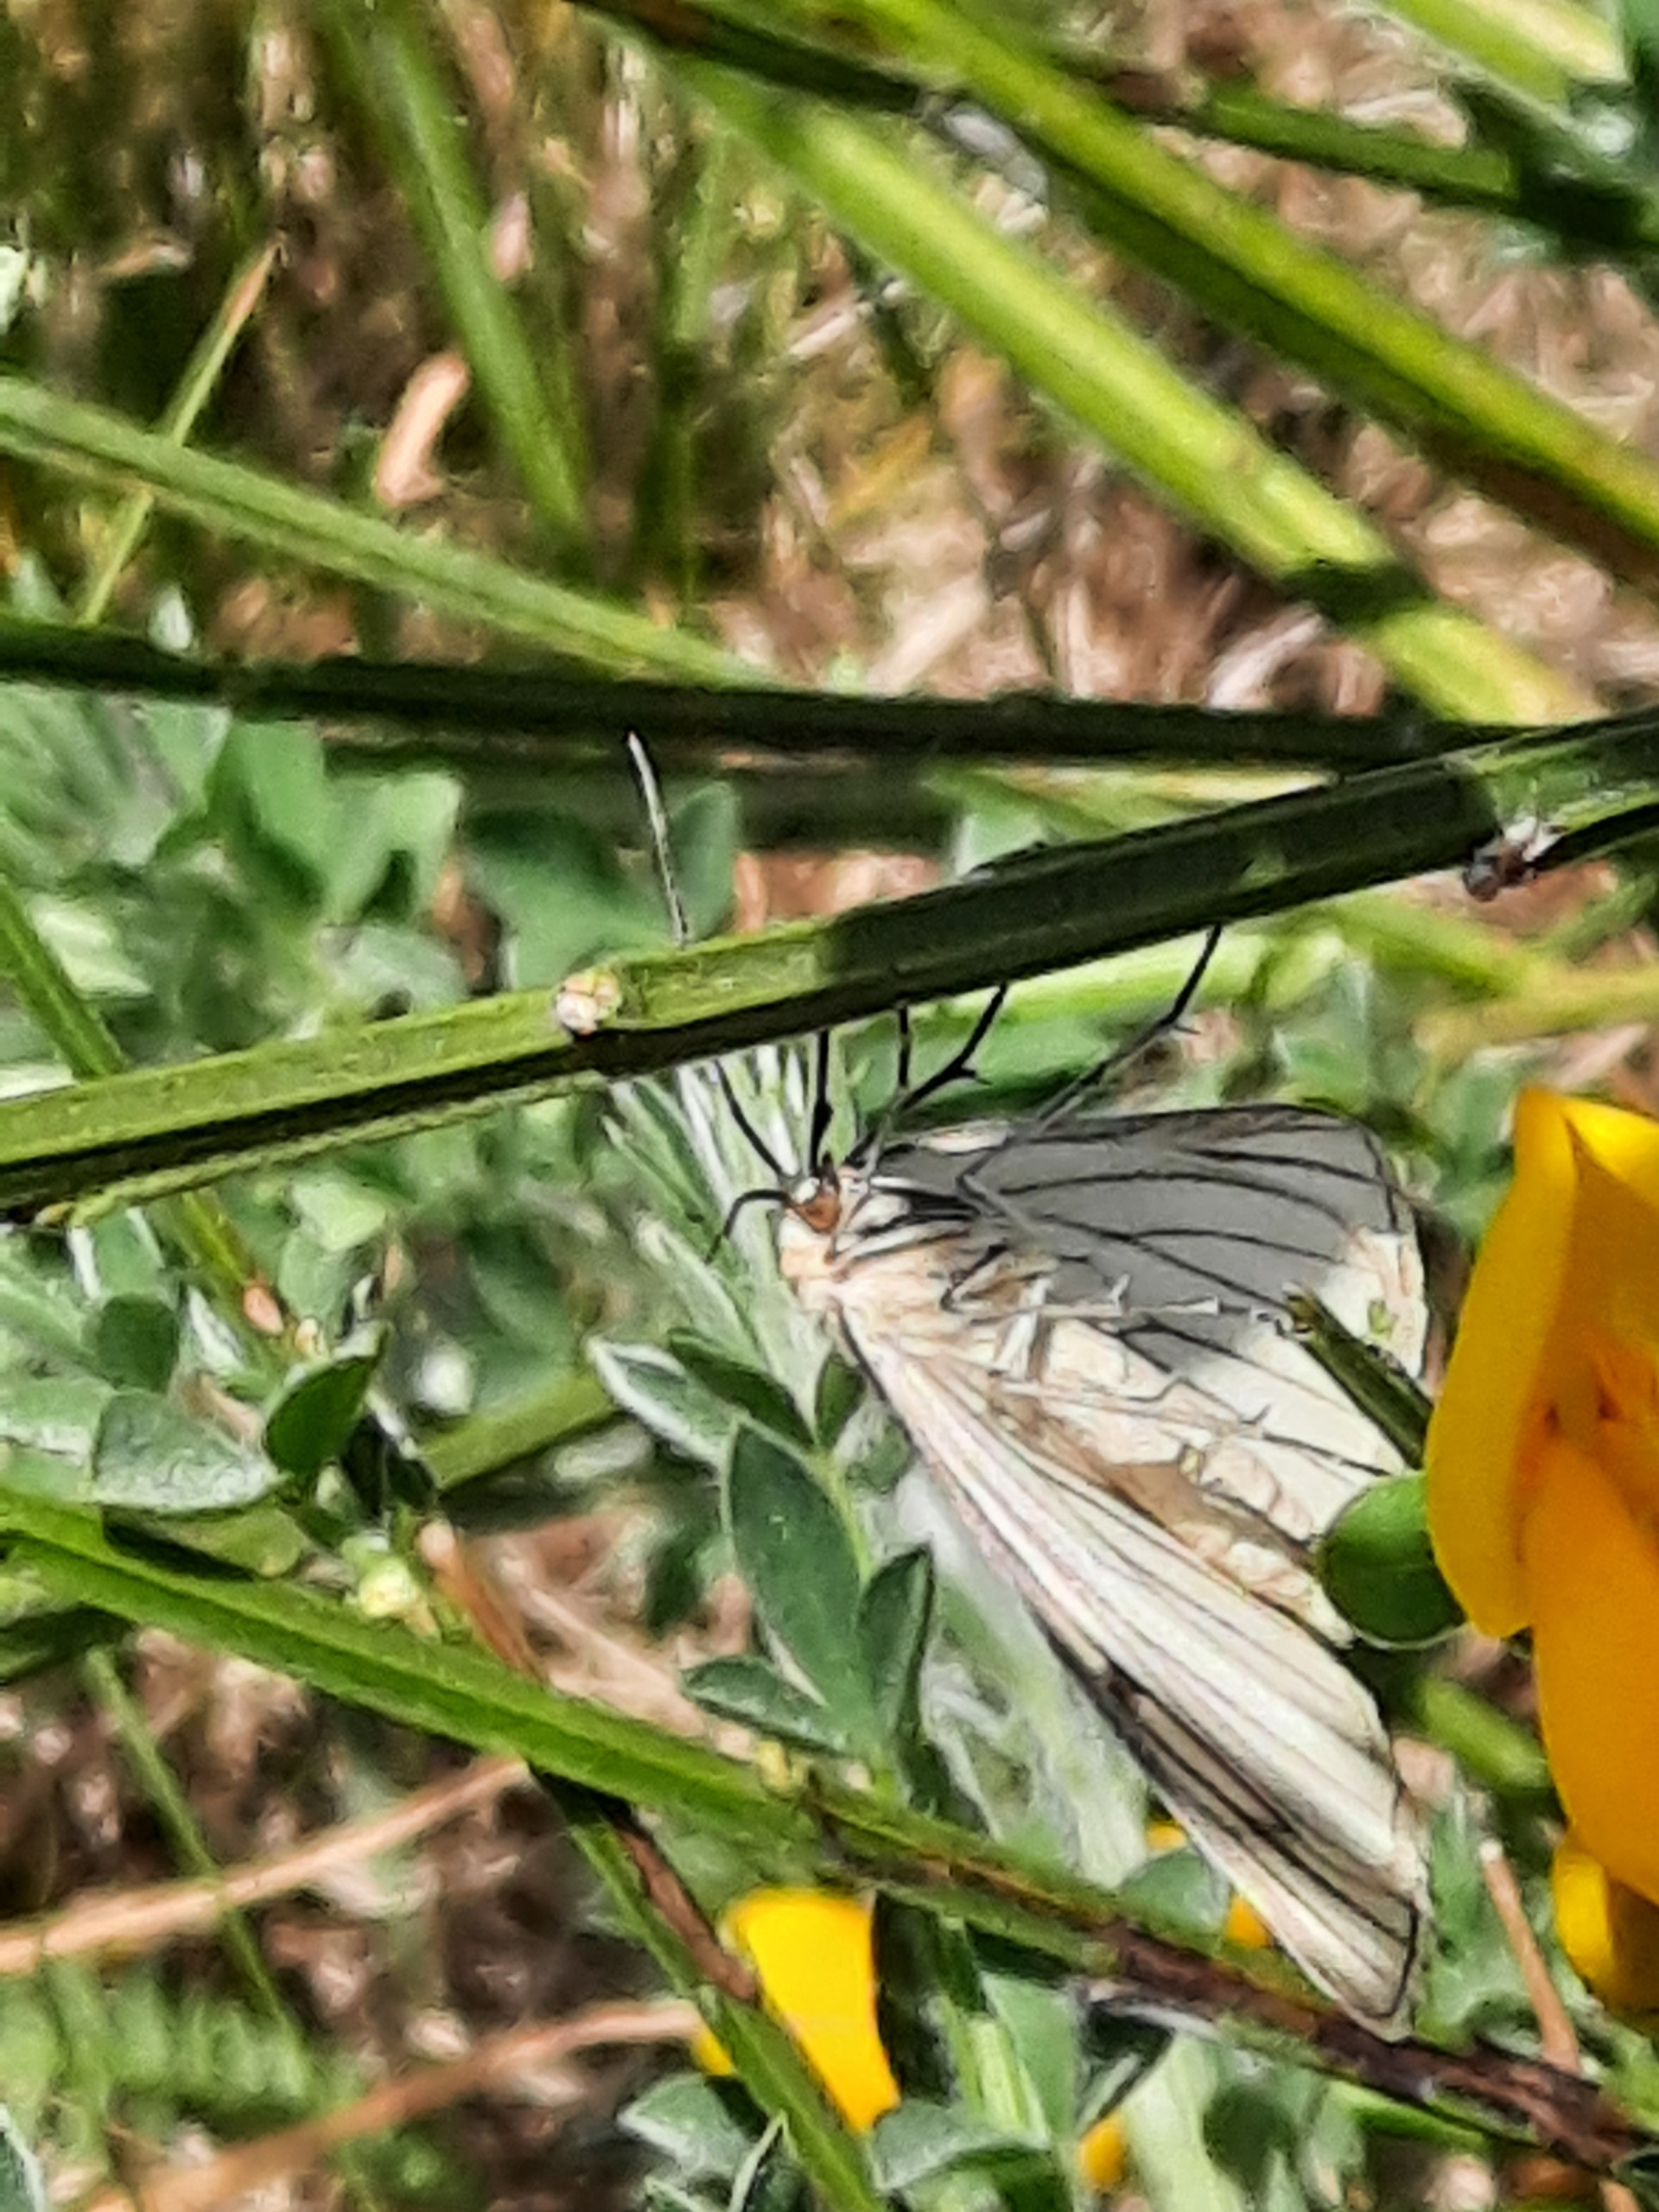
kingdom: Animalia
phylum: Arthropoda
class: Insecta
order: Lepidoptera
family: Geometridae
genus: Siona
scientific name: Siona lineata
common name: Hvidvingemåler
